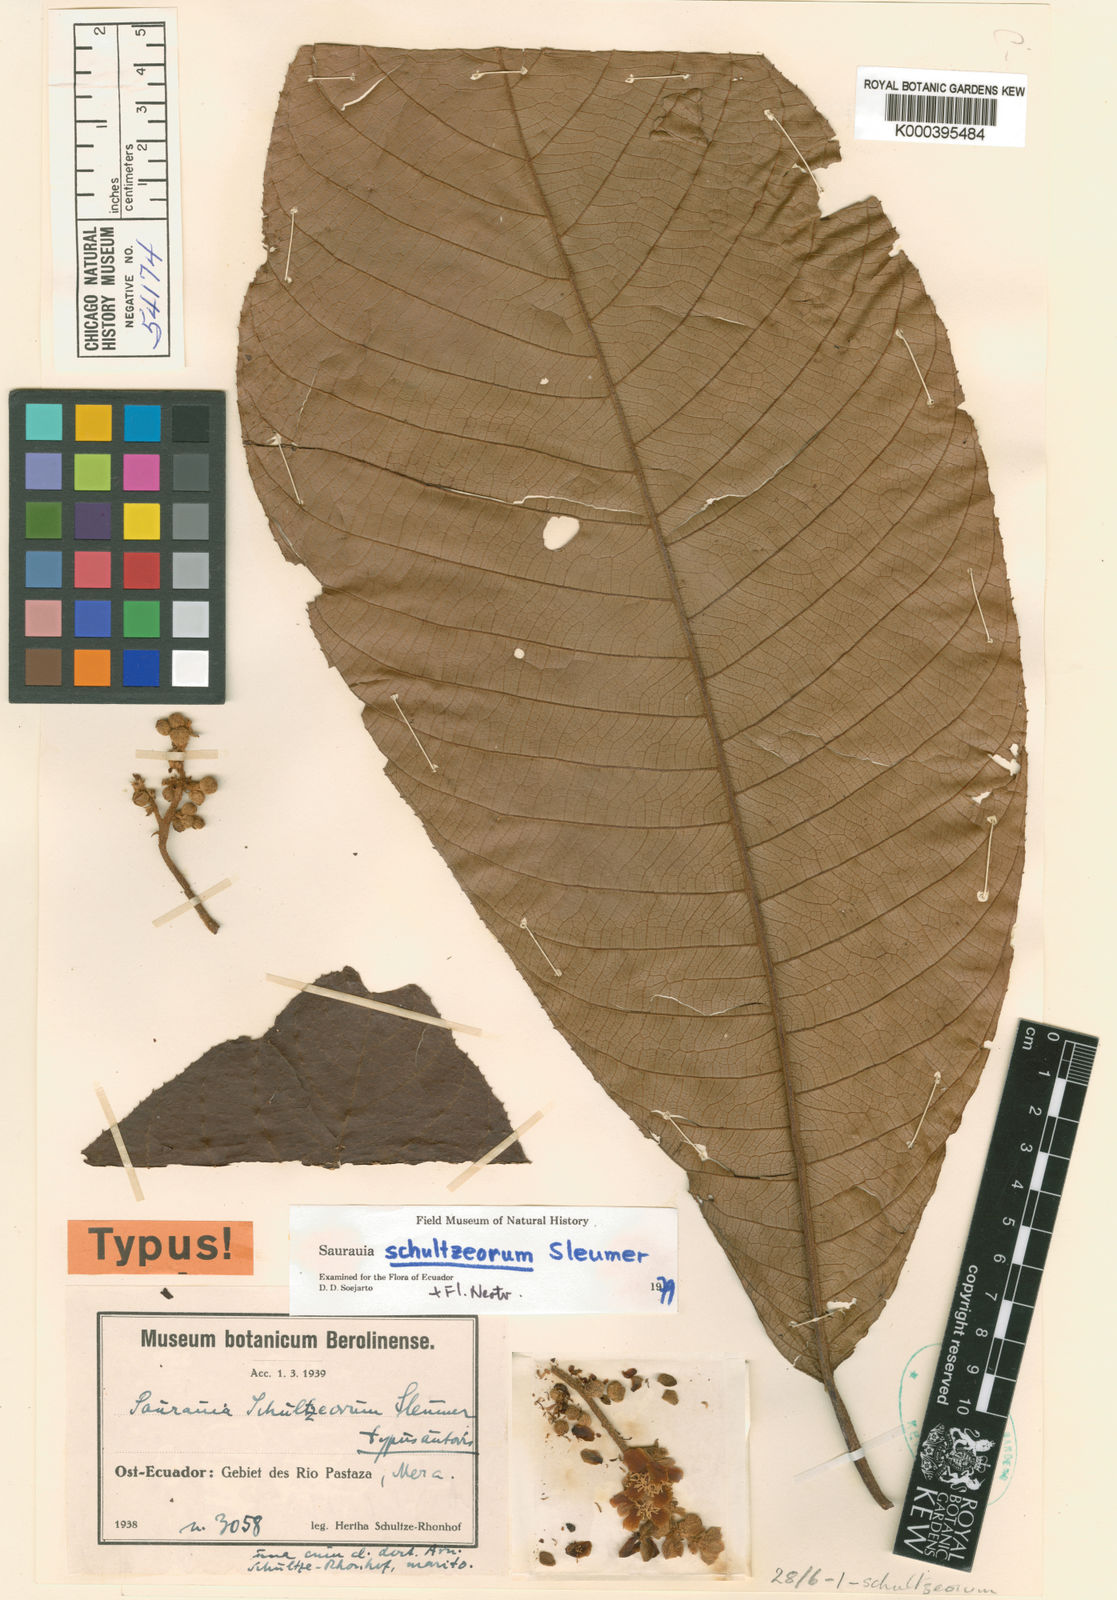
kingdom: Plantae
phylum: Tracheophyta
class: Magnoliopsida
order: Ericales
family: Actinidiaceae
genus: Saurauia
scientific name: Saurauia schultzeorum
